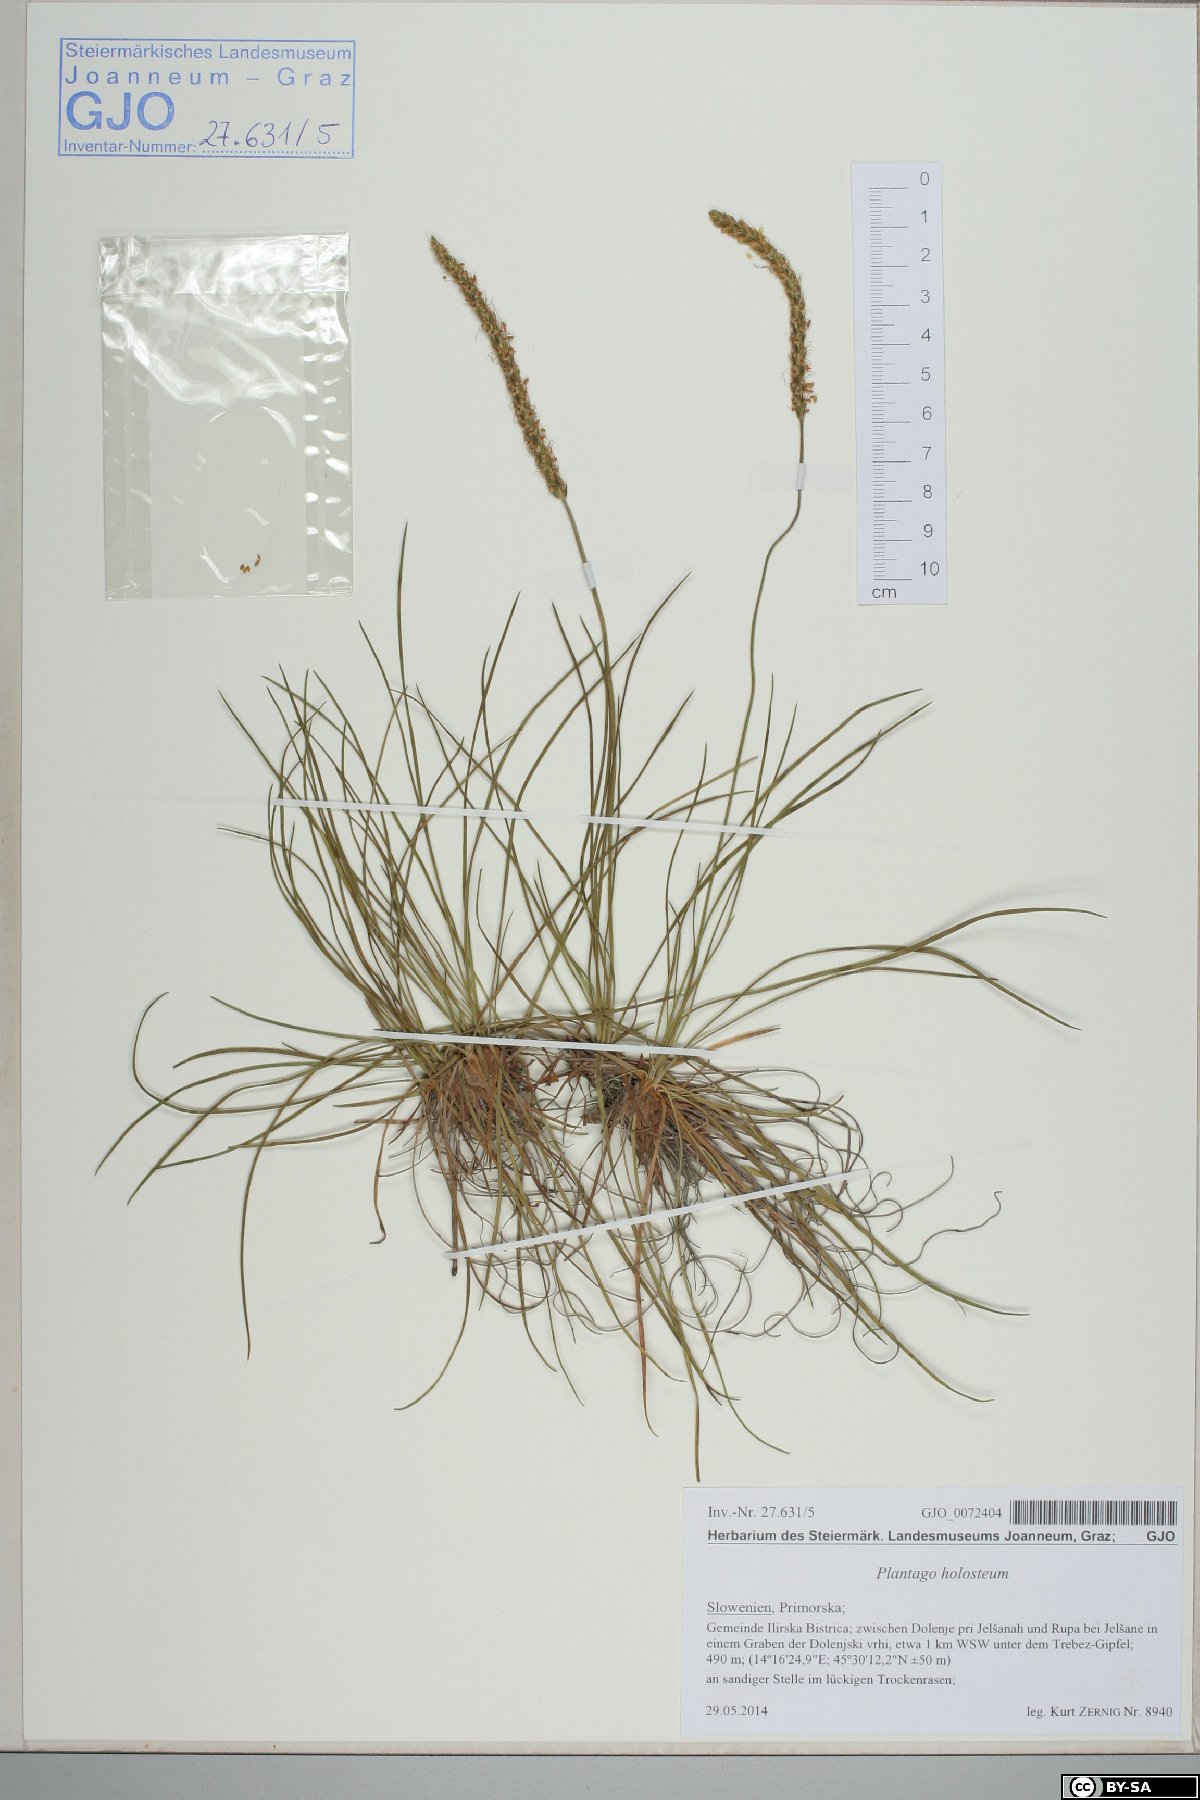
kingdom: Plantae
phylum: Tracheophyta
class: Magnoliopsida
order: Lamiales
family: Plantaginaceae
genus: Plantago
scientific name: Plantago subulata
